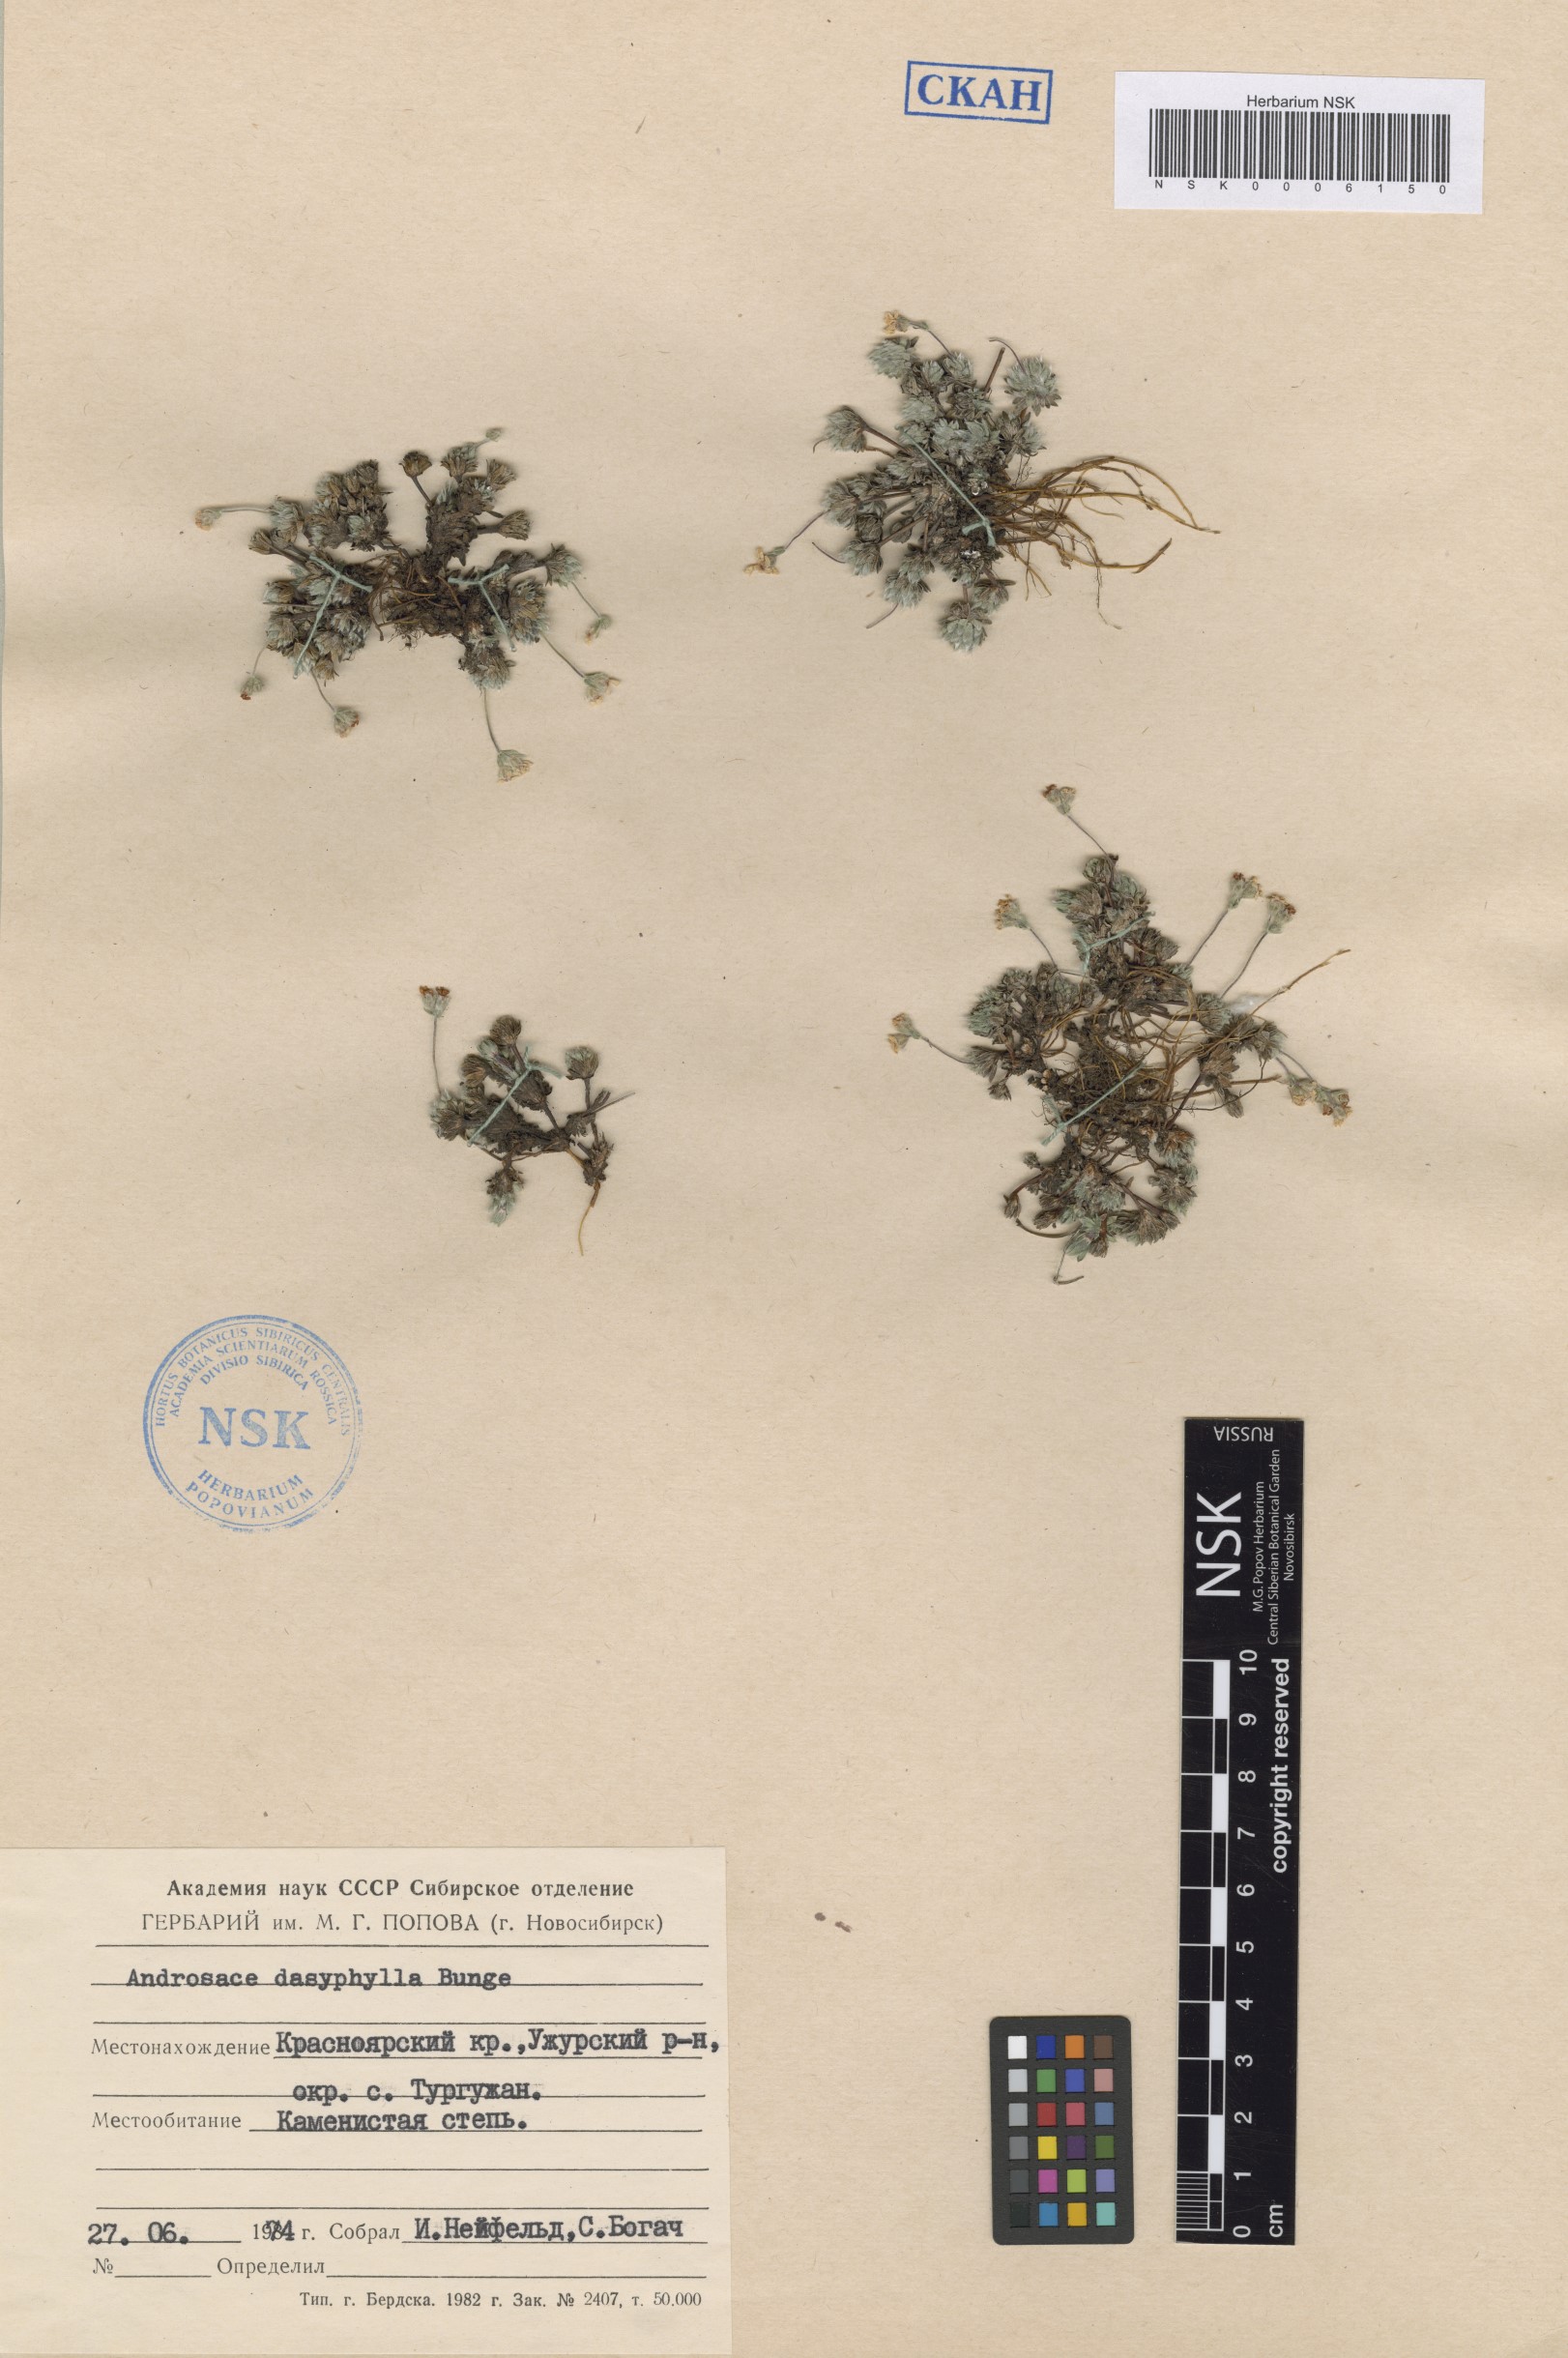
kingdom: Plantae
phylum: Tracheophyta
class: Magnoliopsida
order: Ericales
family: Primulaceae
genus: Androsace
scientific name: Androsace dasyphylla
